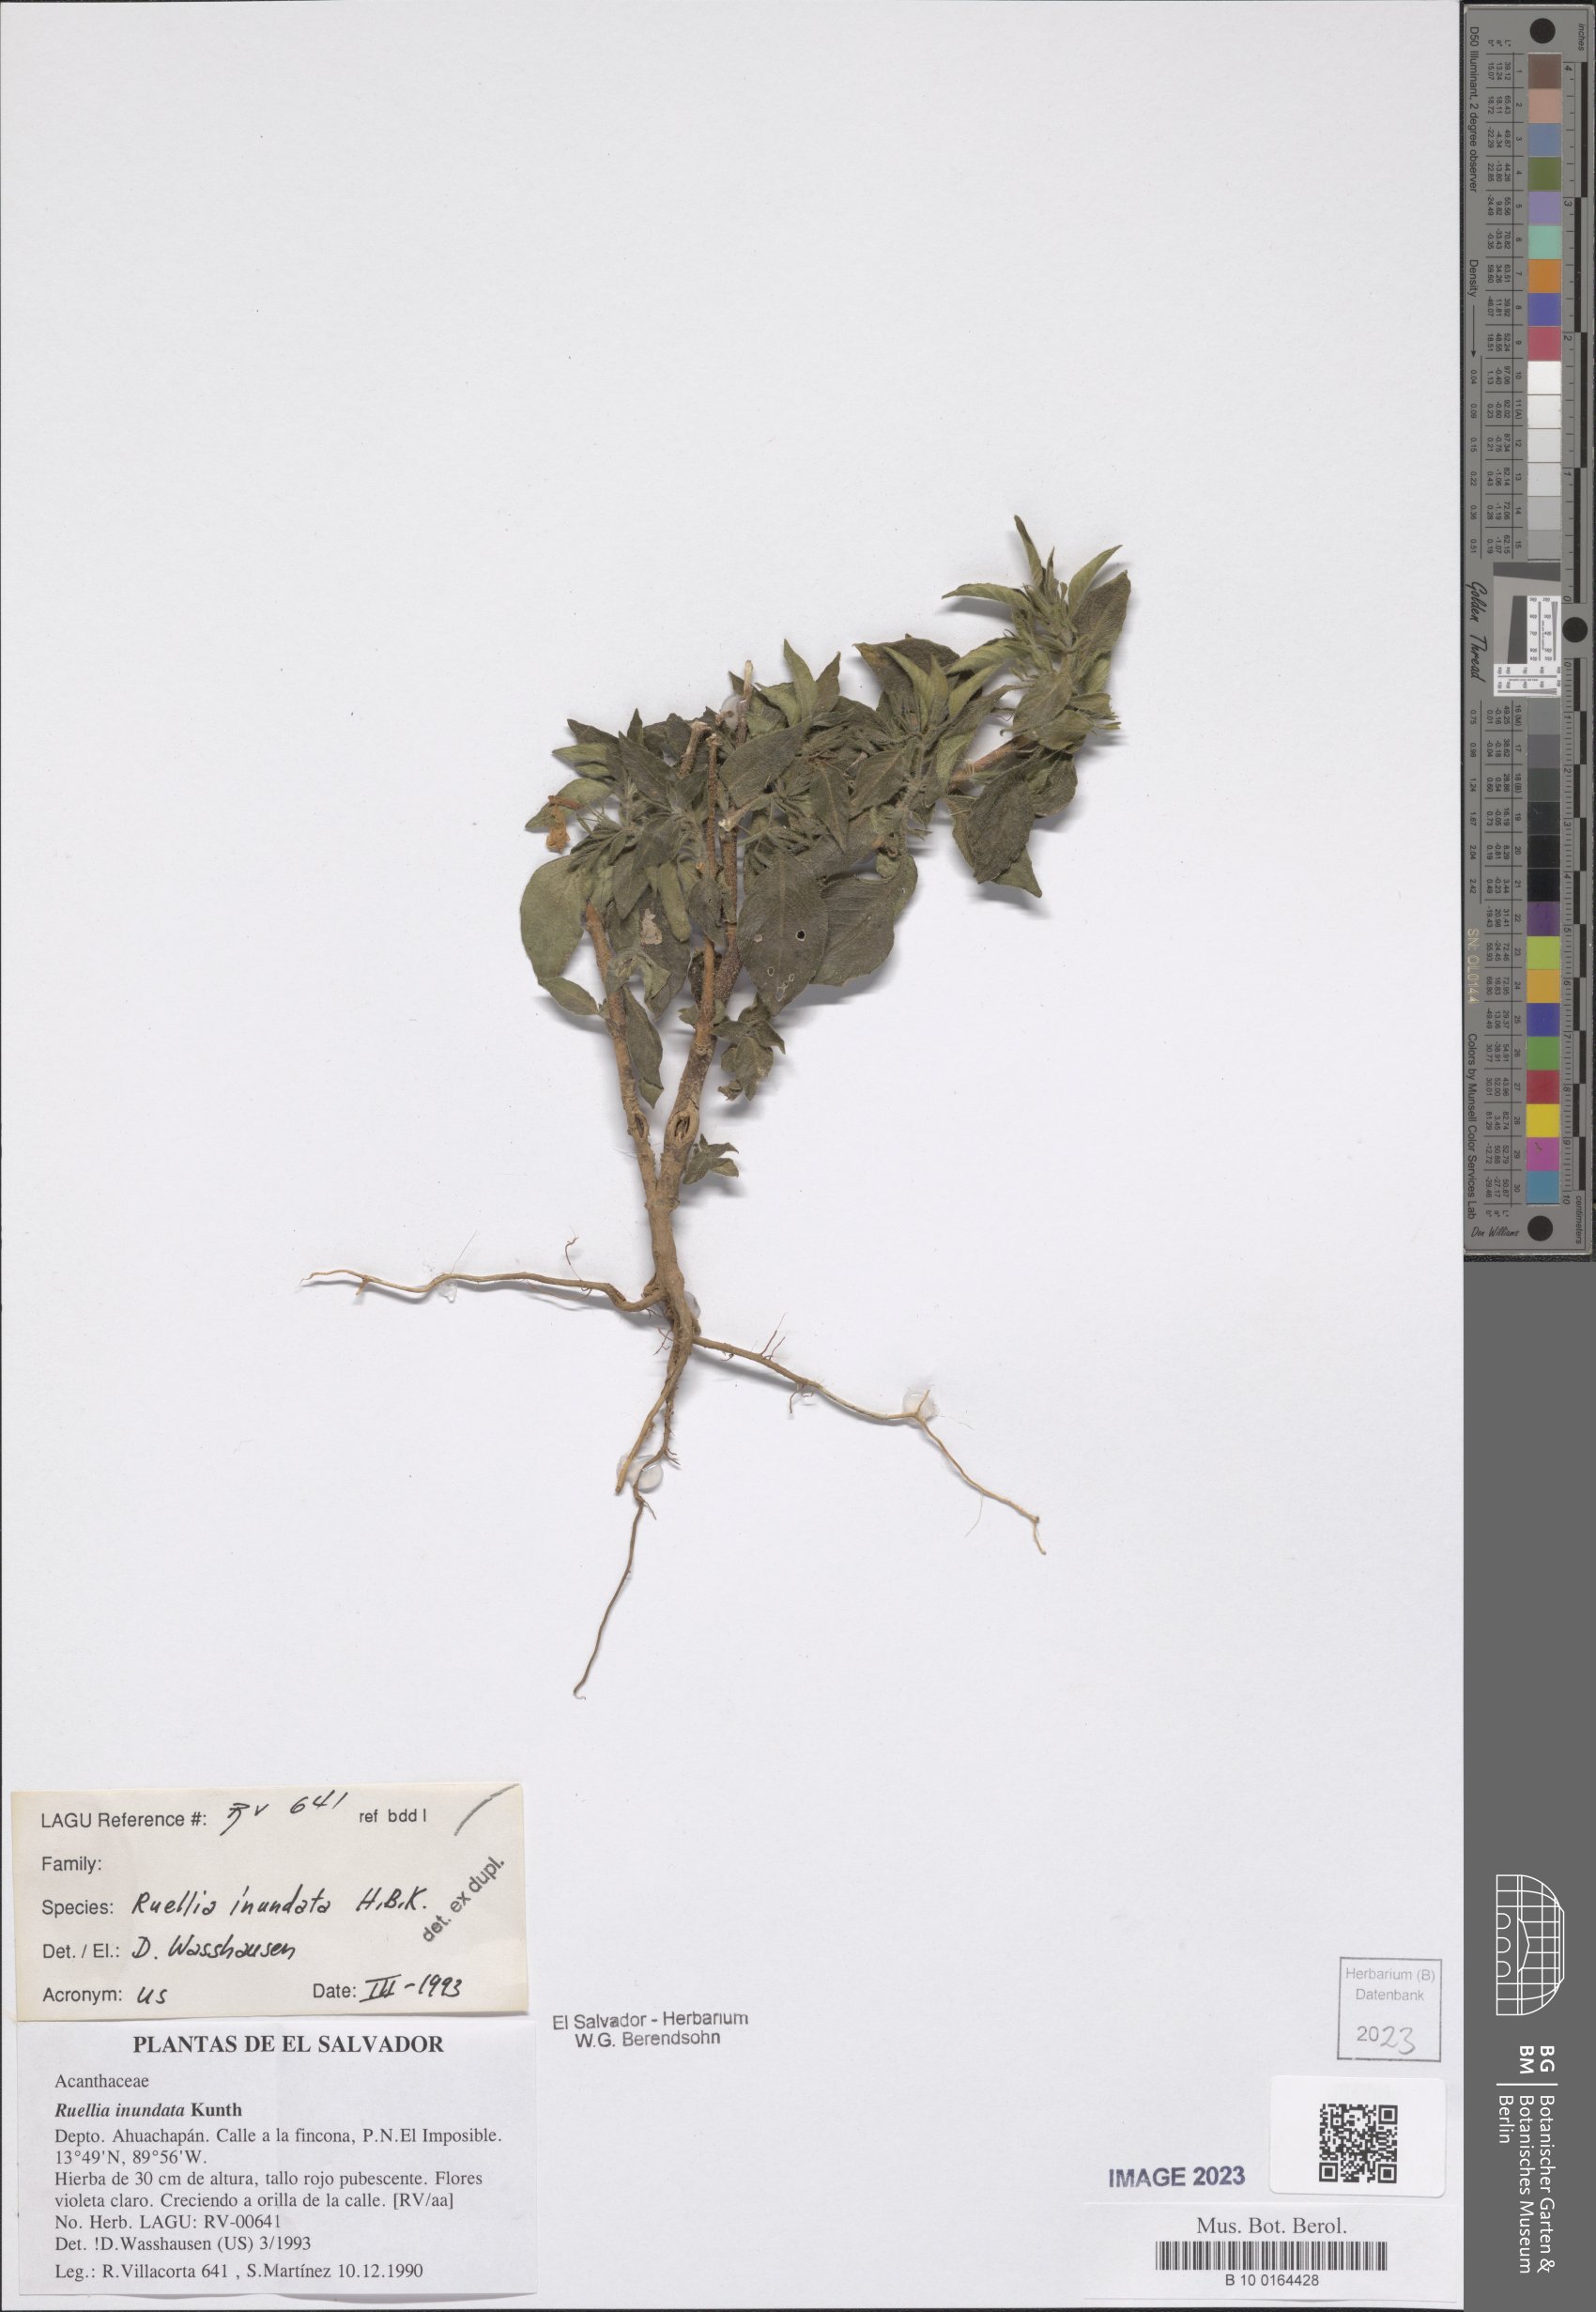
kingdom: Plantae
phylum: Tracheophyta
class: Magnoliopsida
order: Lamiales
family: Acanthaceae
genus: Ruellia
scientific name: Ruellia inundata
